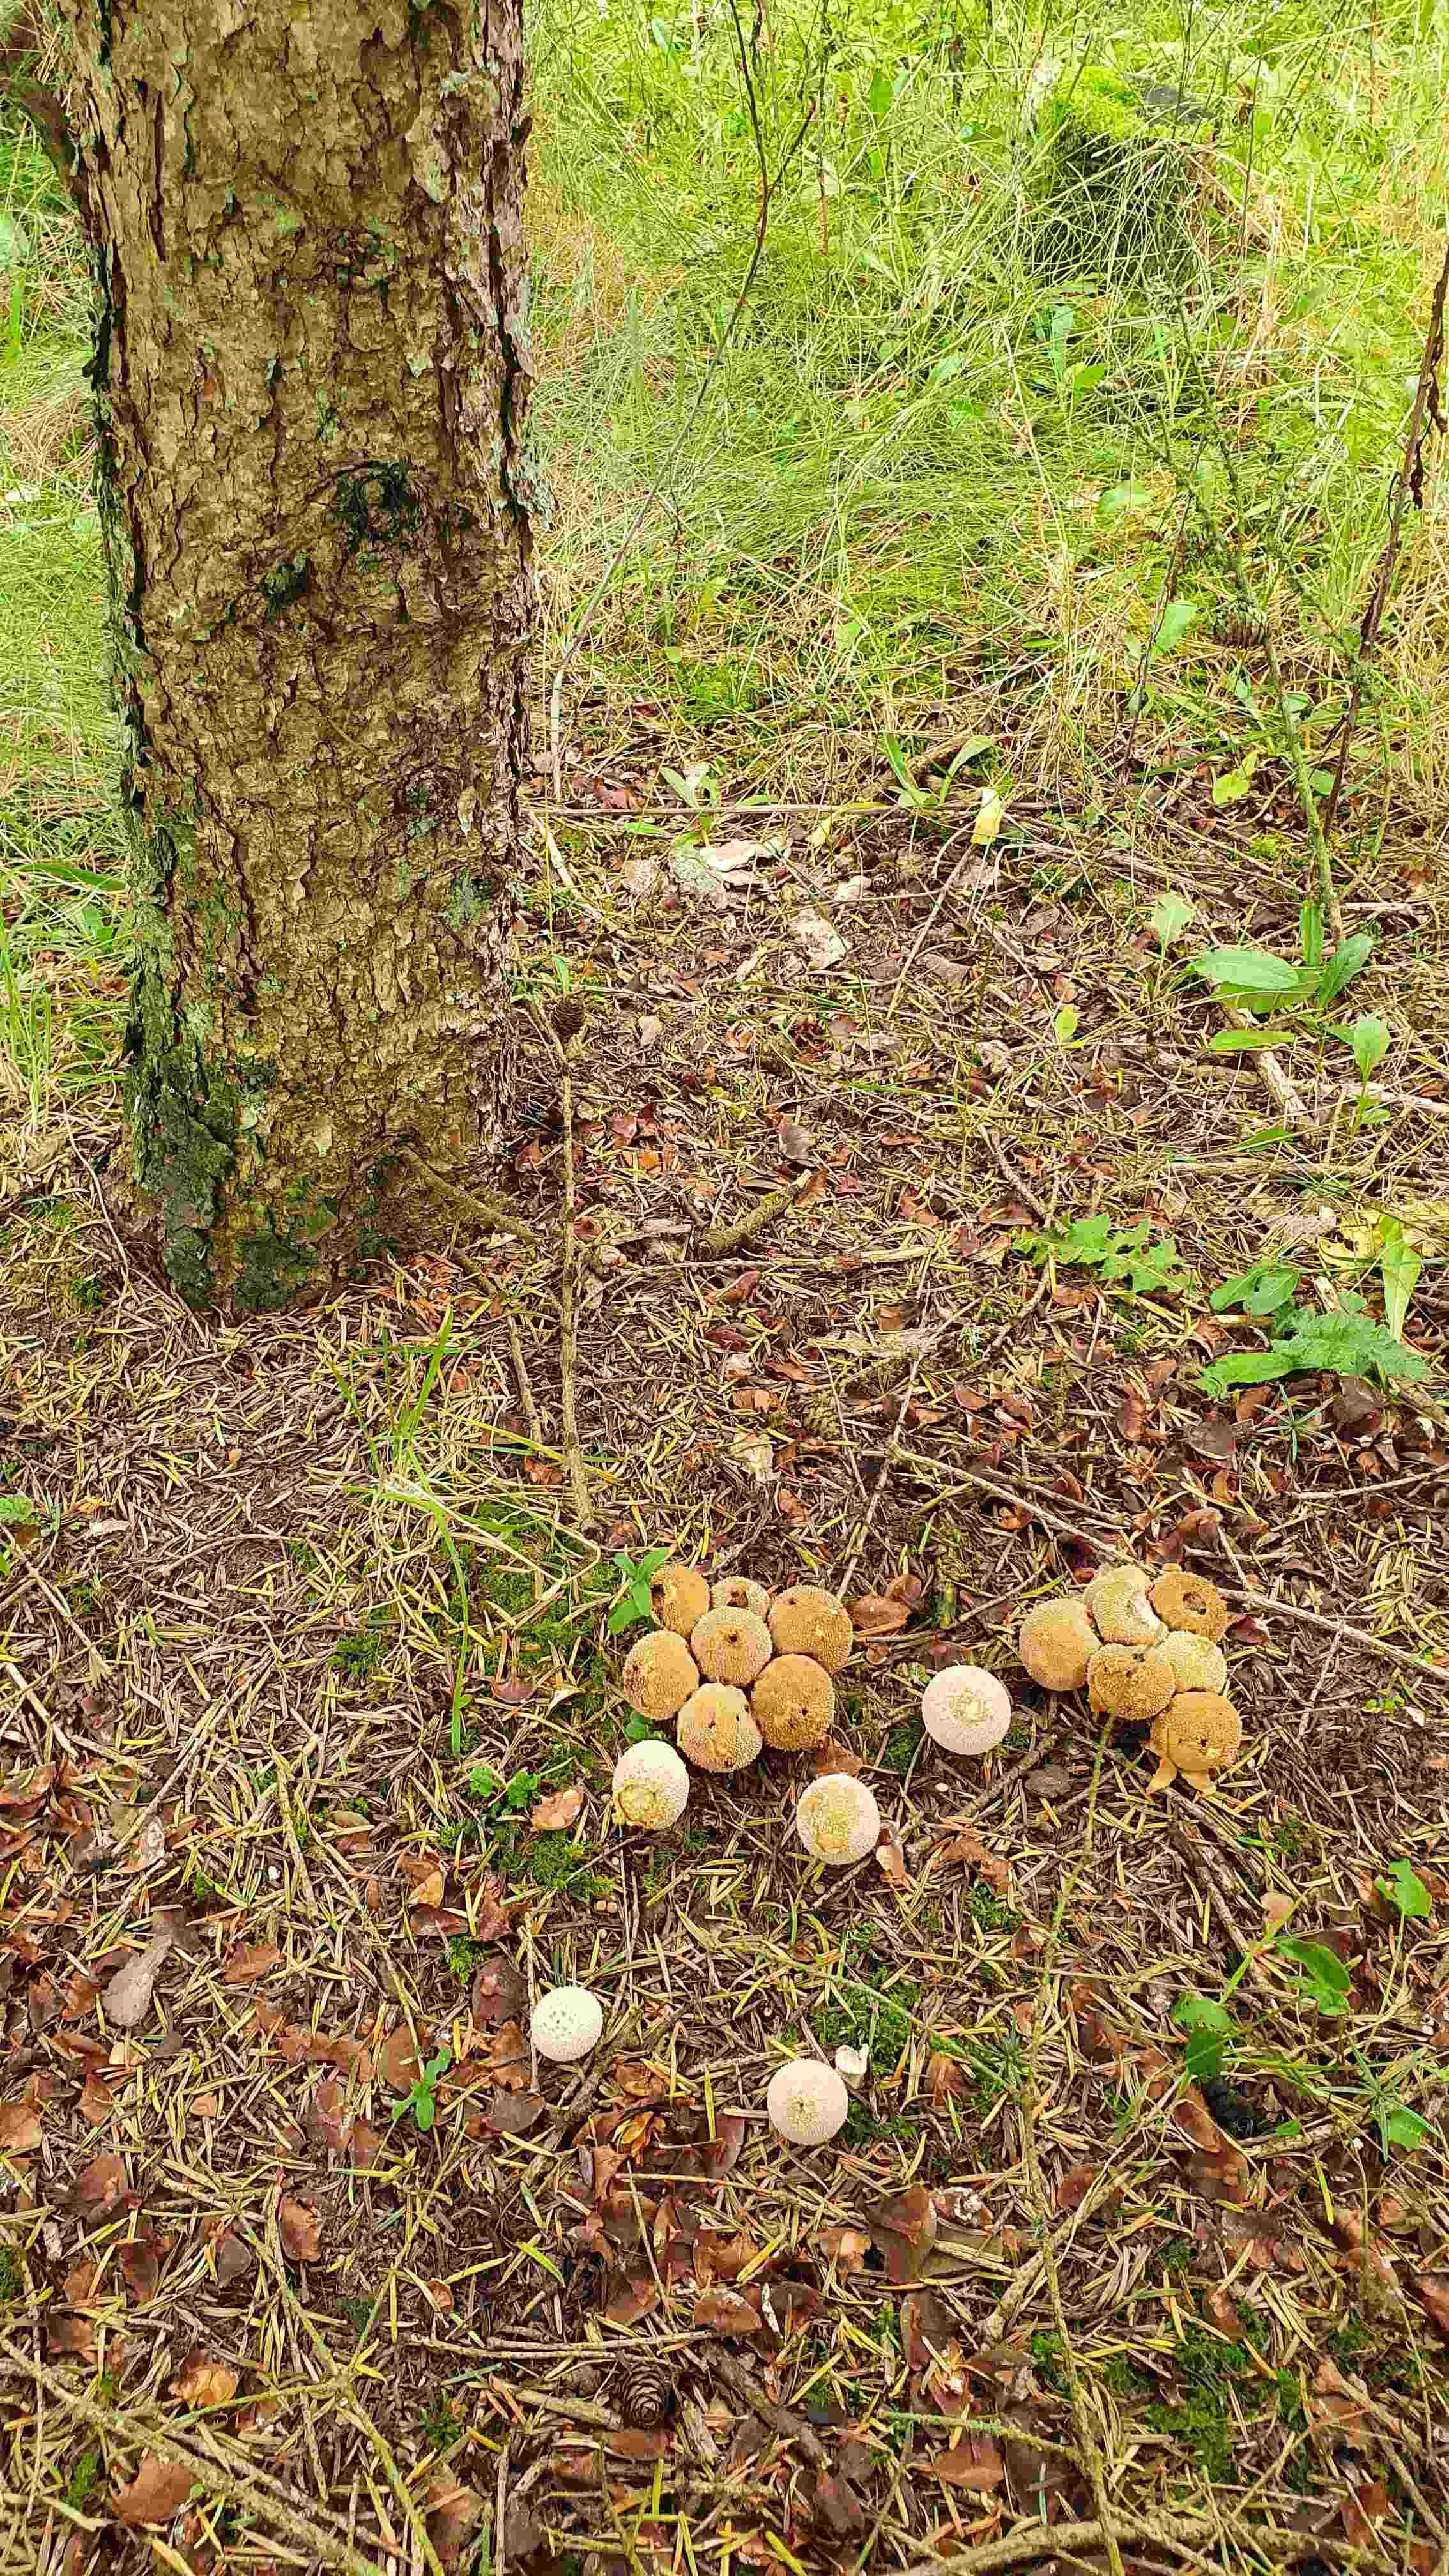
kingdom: Fungi
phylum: Basidiomycota
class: Agaricomycetes
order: Agaricales
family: Lycoperdaceae
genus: Lycoperdon
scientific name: Lycoperdon perlatum
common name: krystal-støvbold
